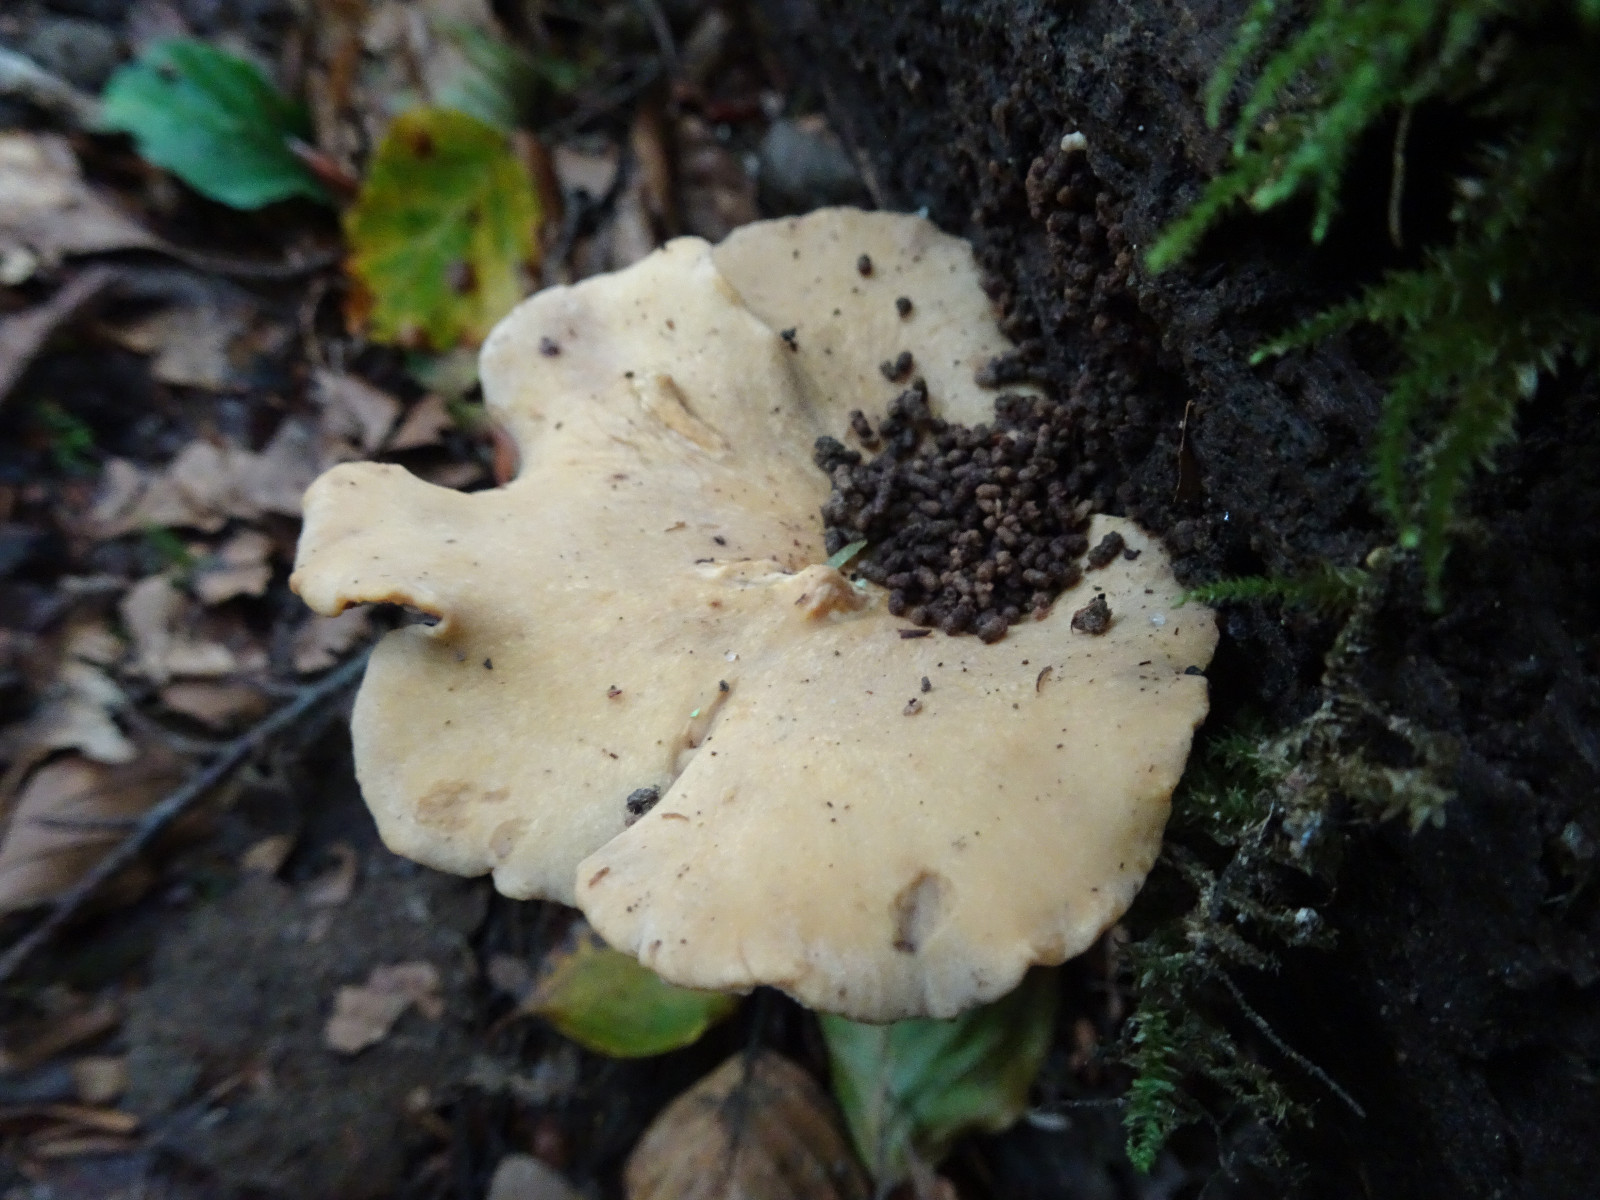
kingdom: Fungi
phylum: Basidiomycota
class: Agaricomycetes
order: Polyporales
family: Polyporaceae
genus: Cerioporus
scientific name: Cerioporus varius
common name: foranderlig stilkporesvamp
